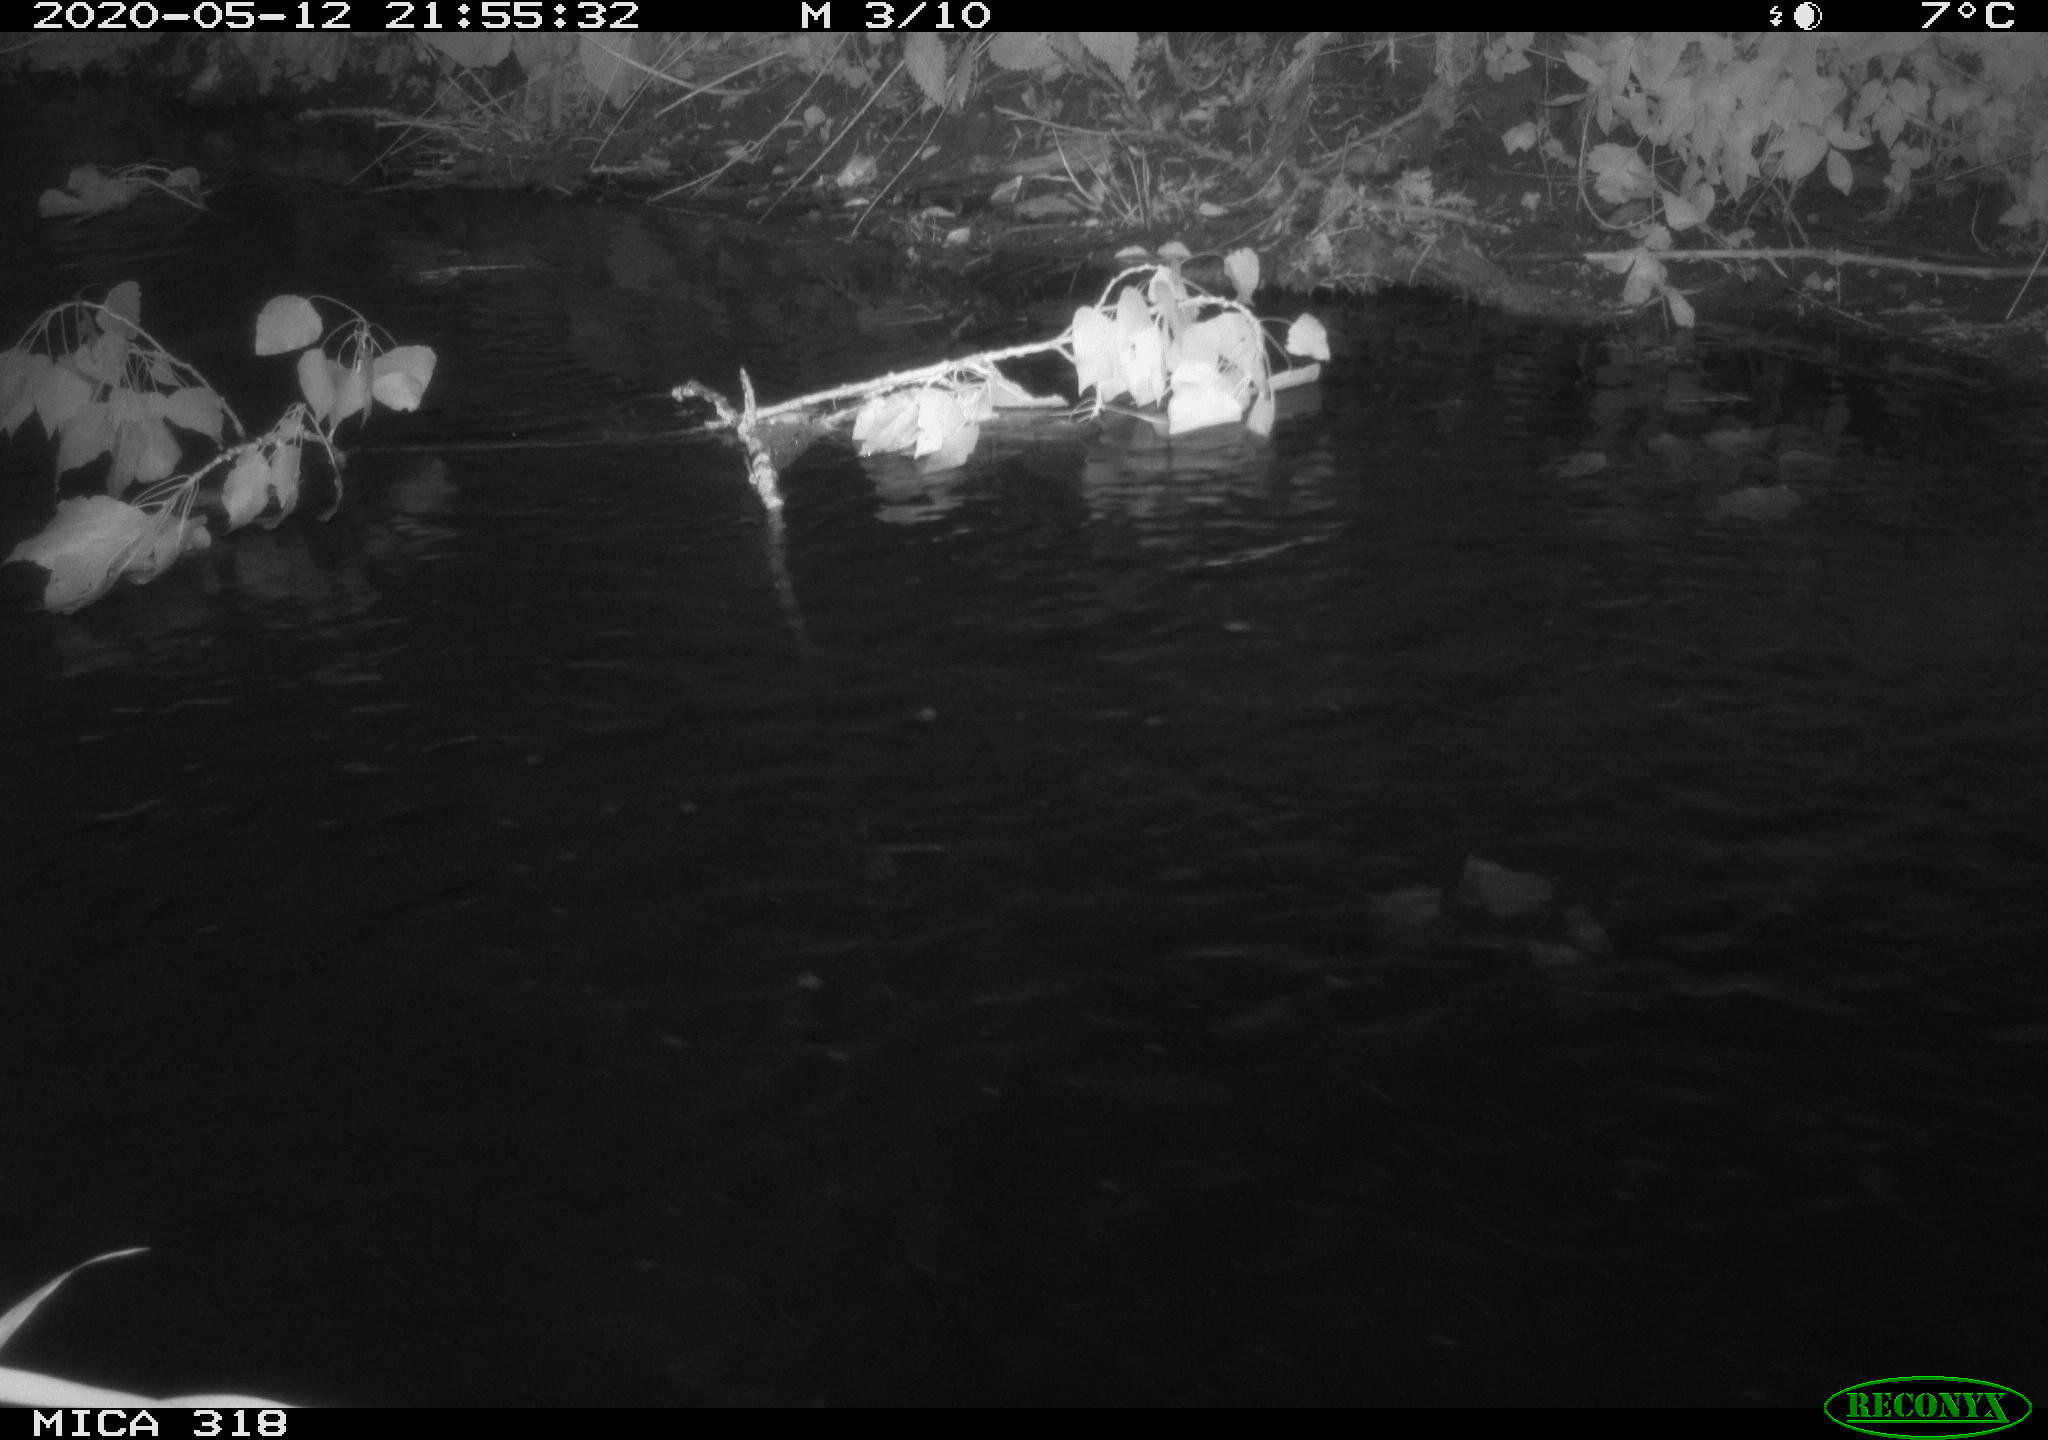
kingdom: Animalia
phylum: Chordata
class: Aves
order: Pelecaniformes
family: Ardeidae
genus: Ardea
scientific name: Ardea cinerea
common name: Grey heron
